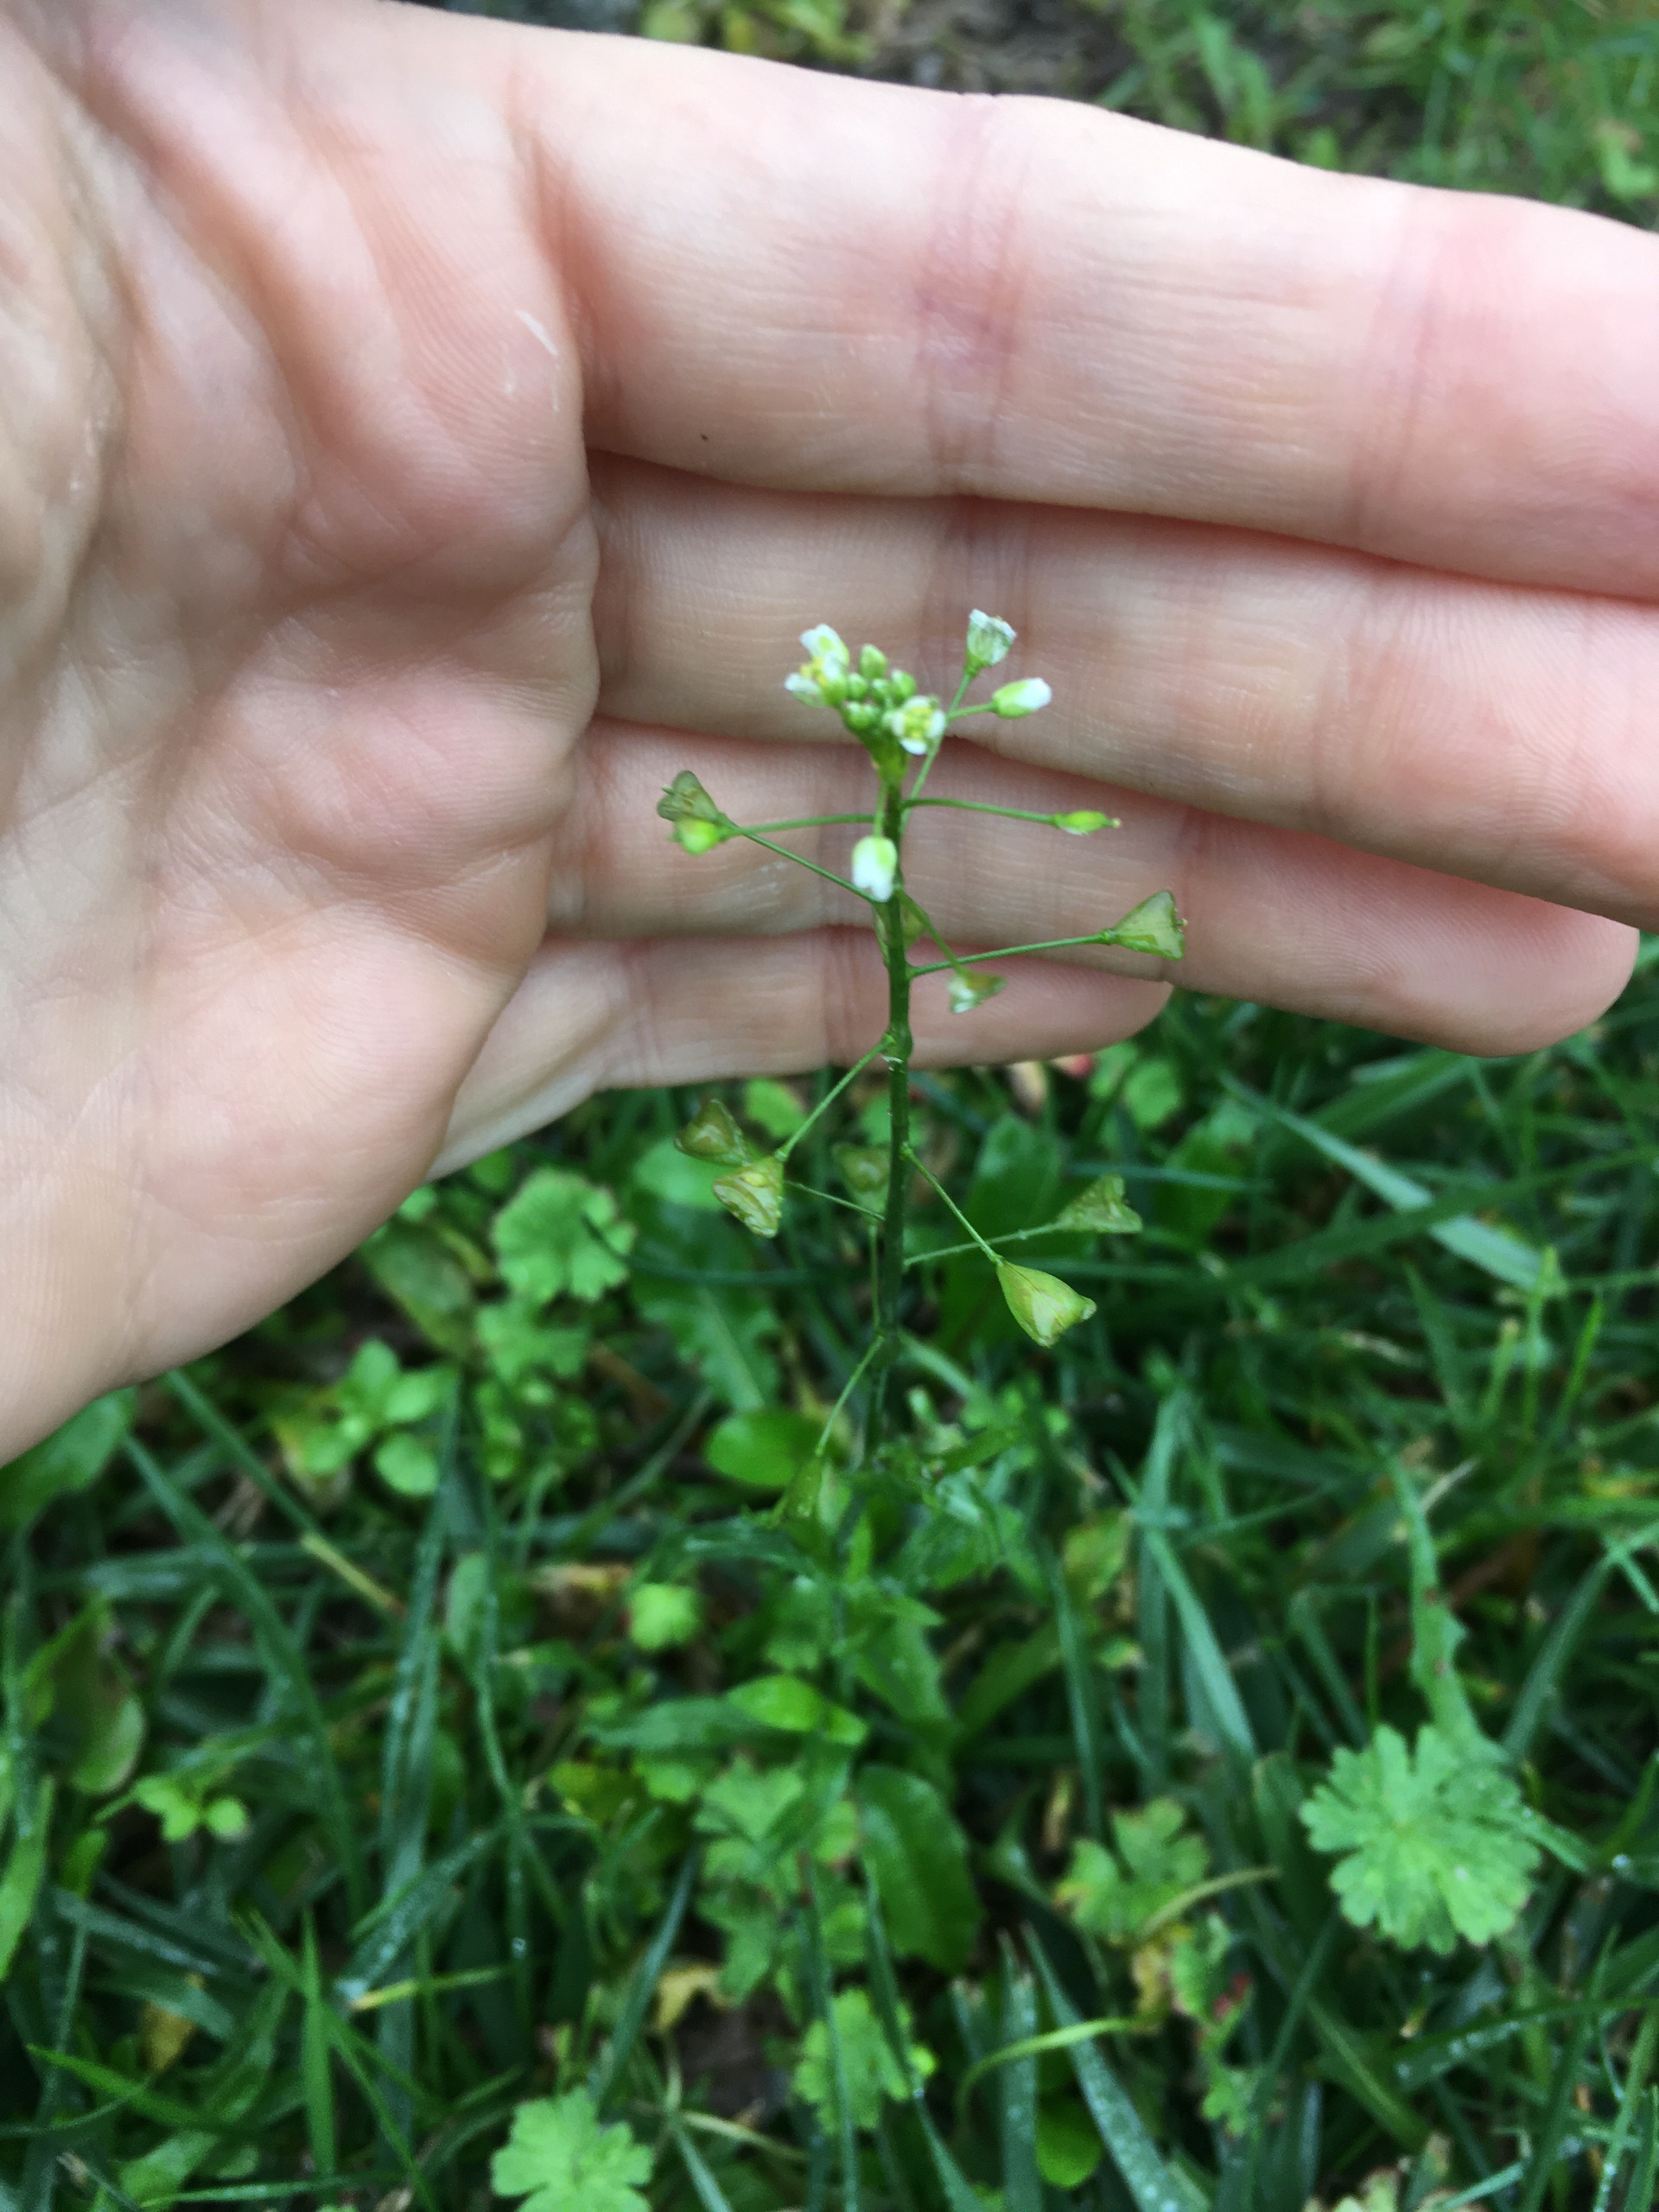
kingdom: Plantae
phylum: Tracheophyta
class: Magnoliopsida
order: Brassicales
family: Brassicaceae
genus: Capsella
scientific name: Capsella bursa-pastoris
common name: Hyrdetaske
